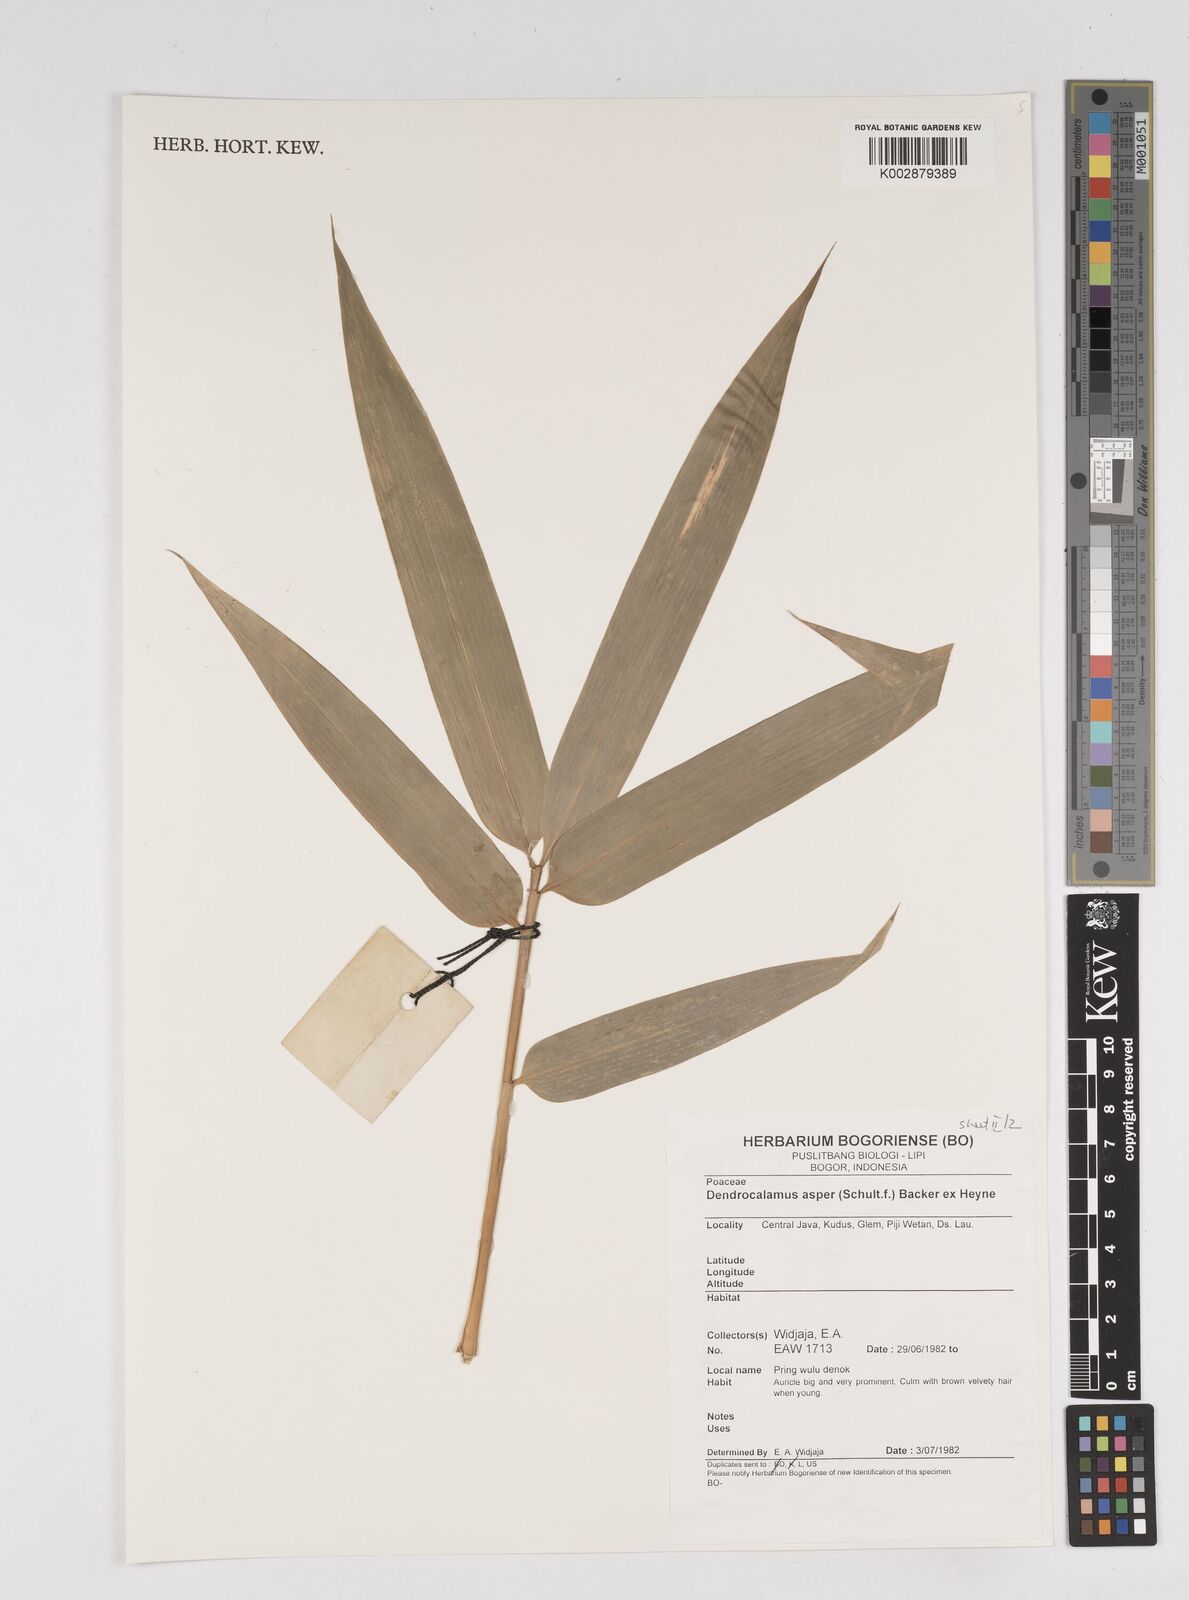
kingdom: Plantae
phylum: Tracheophyta
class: Liliopsida
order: Poales
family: Poaceae
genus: Dendrocalamus
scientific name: Dendrocalamus asper
